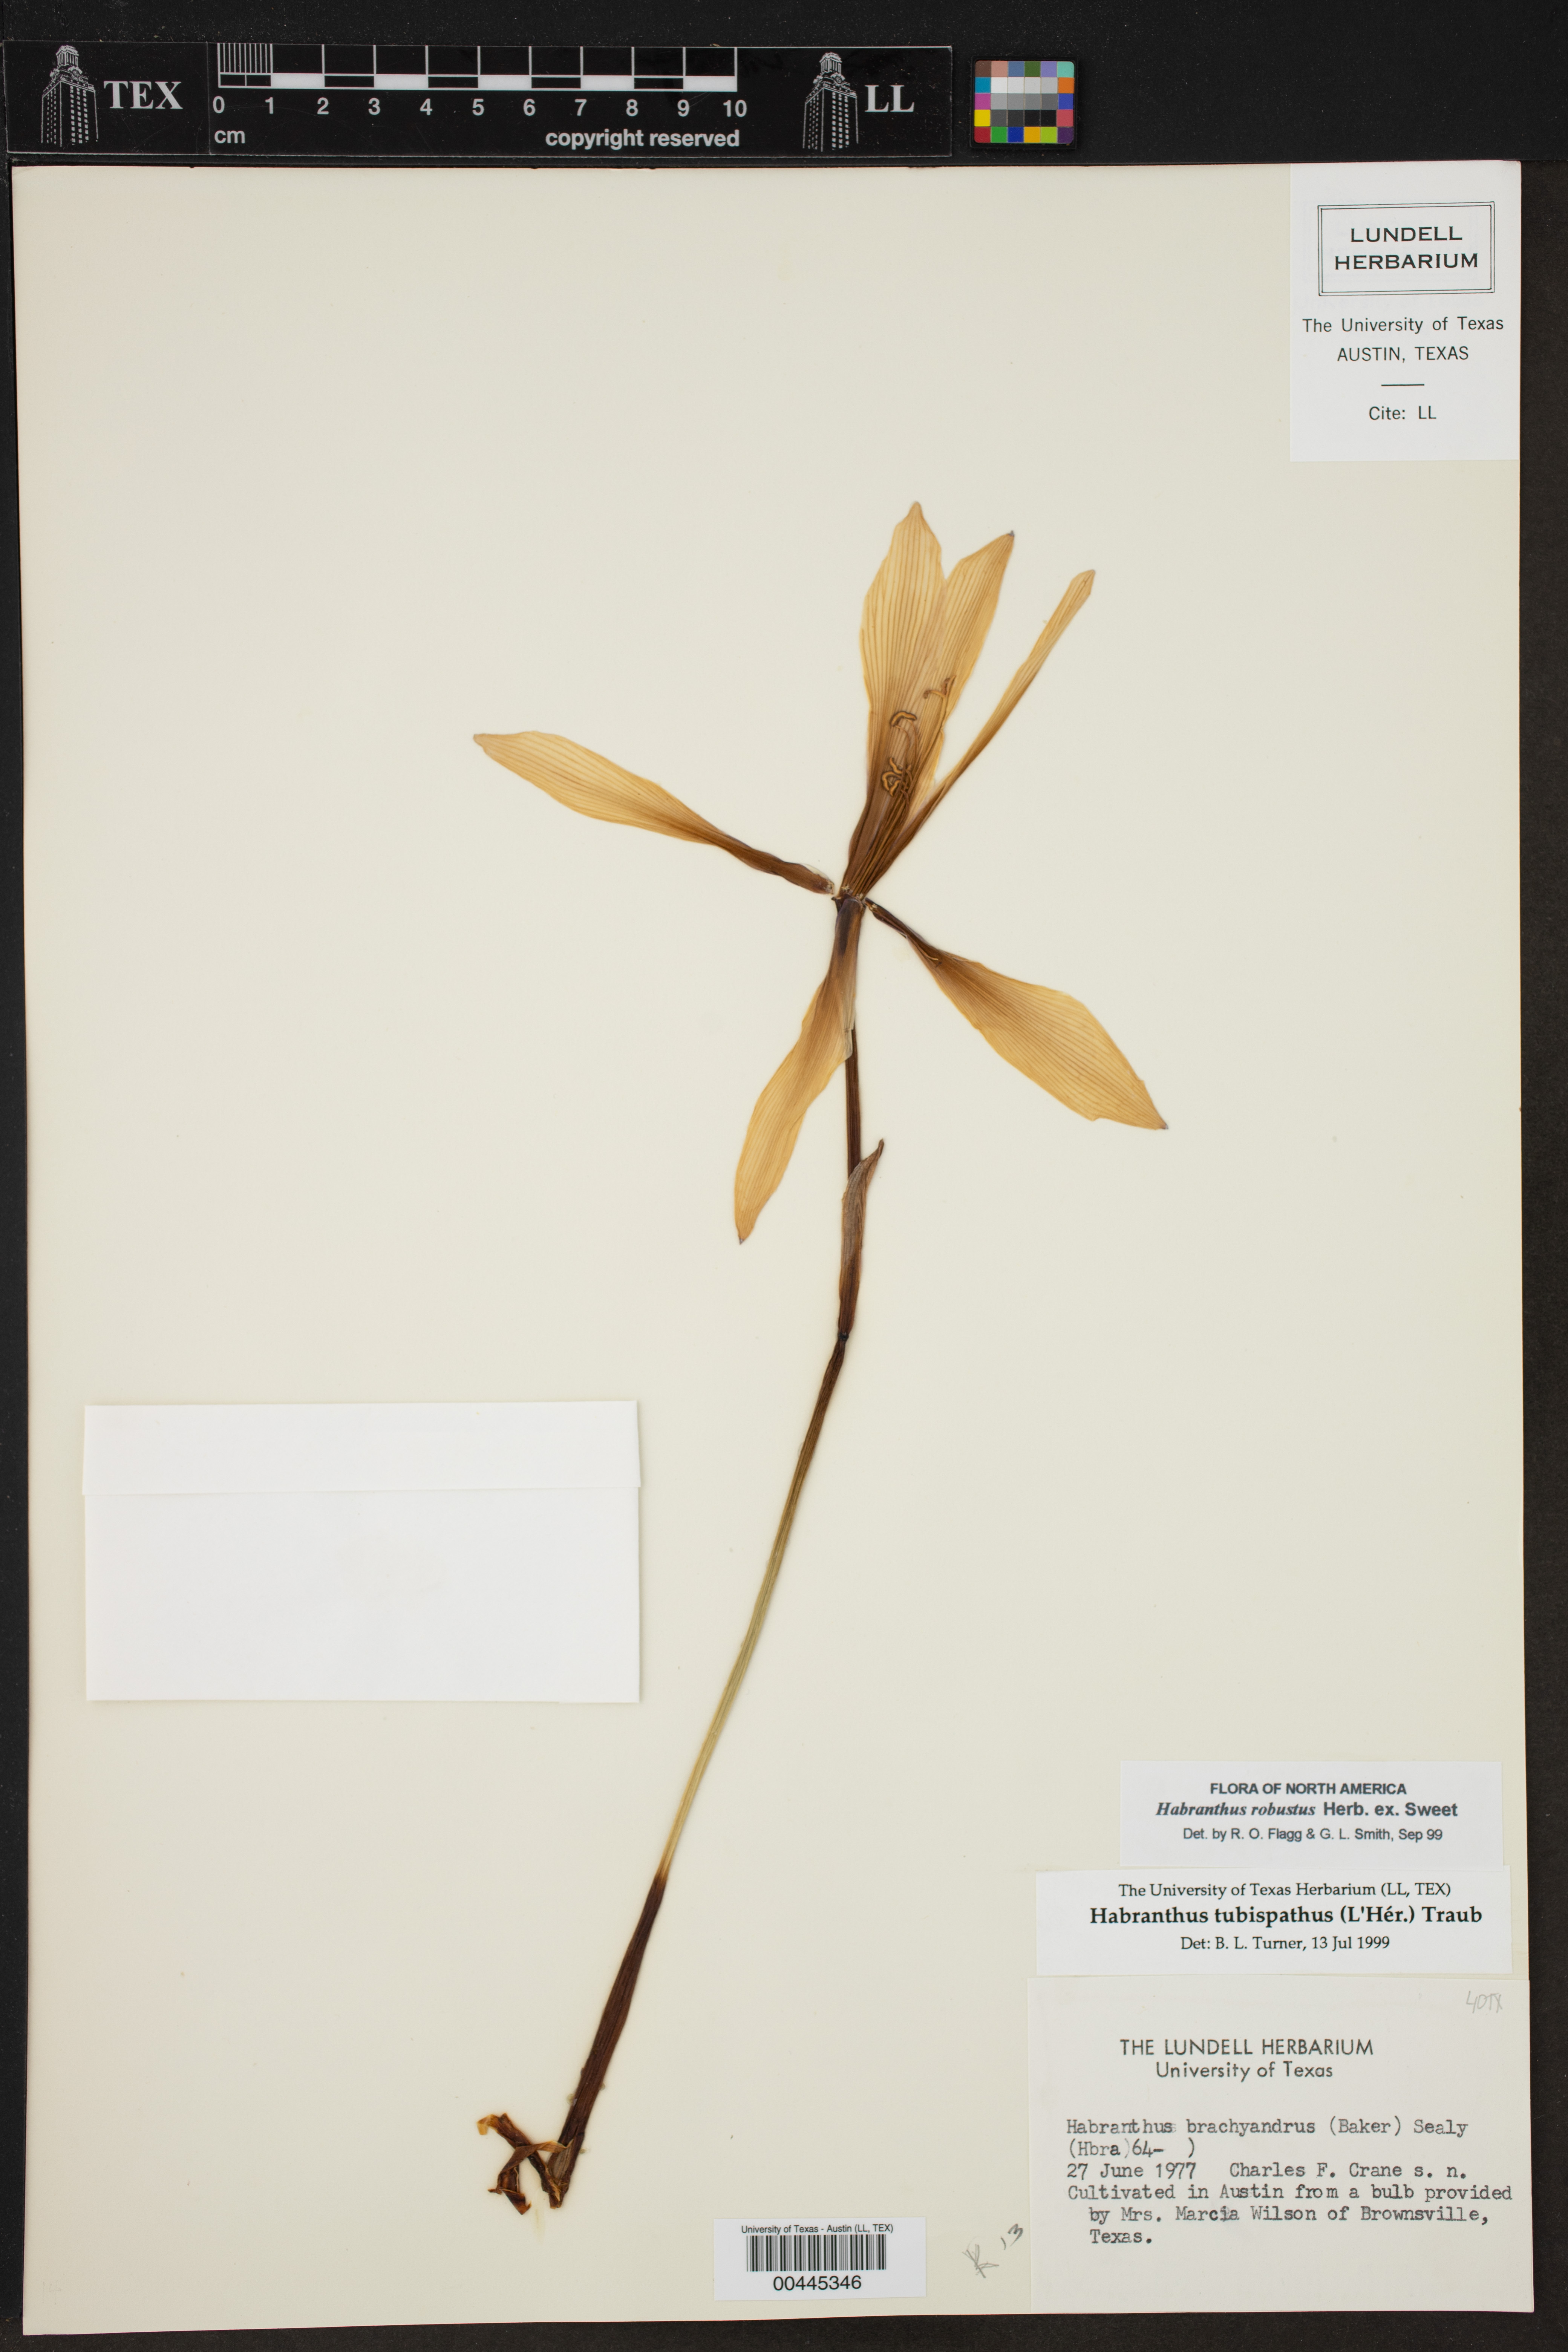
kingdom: Plantae
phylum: Tracheophyta
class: Liliopsida
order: Asparagales
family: Amaryllidaceae
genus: Zephyranthes
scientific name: Zephyranthes robusta
